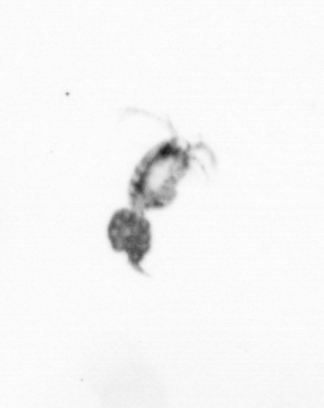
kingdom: Animalia
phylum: Arthropoda
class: Copepoda
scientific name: Copepoda
